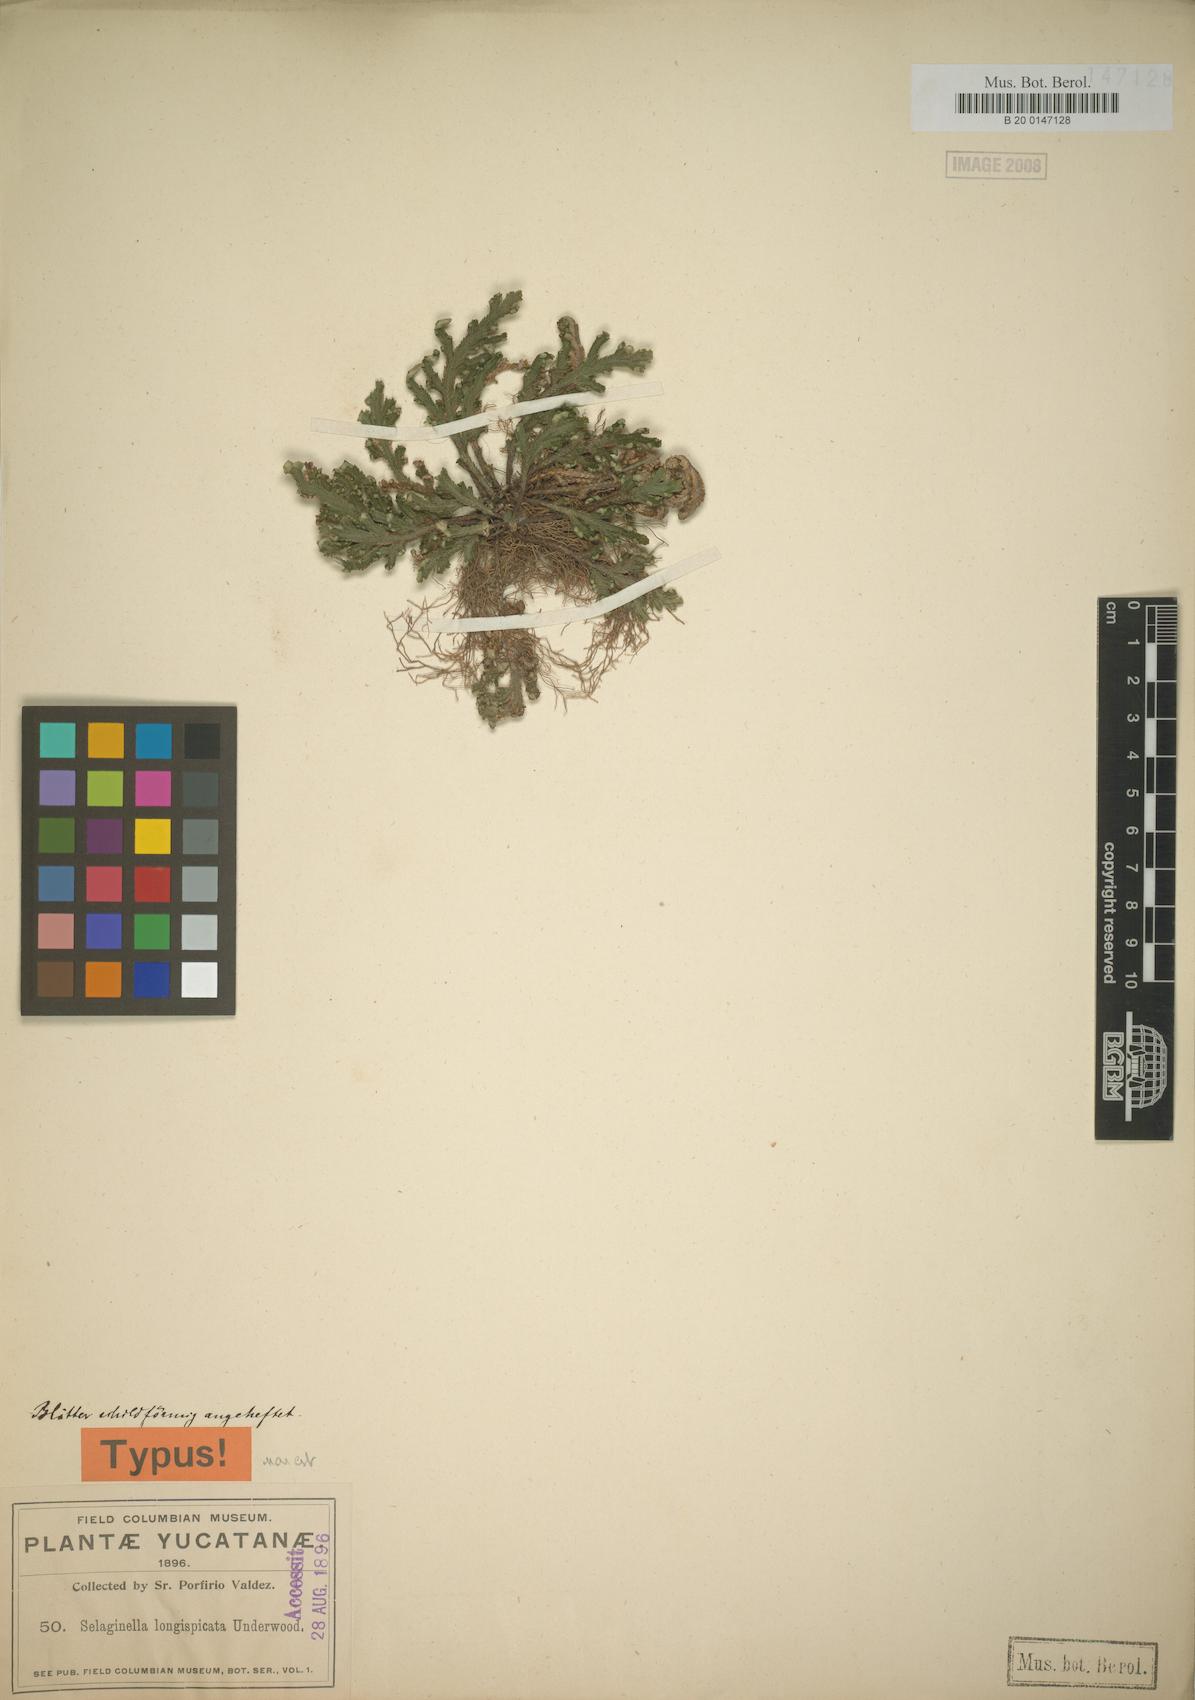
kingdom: Plantae
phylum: Tracheophyta
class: Lycopodiopsida
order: Selaginellales
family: Selaginellaceae
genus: Selaginella
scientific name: Selaginella convoluta
